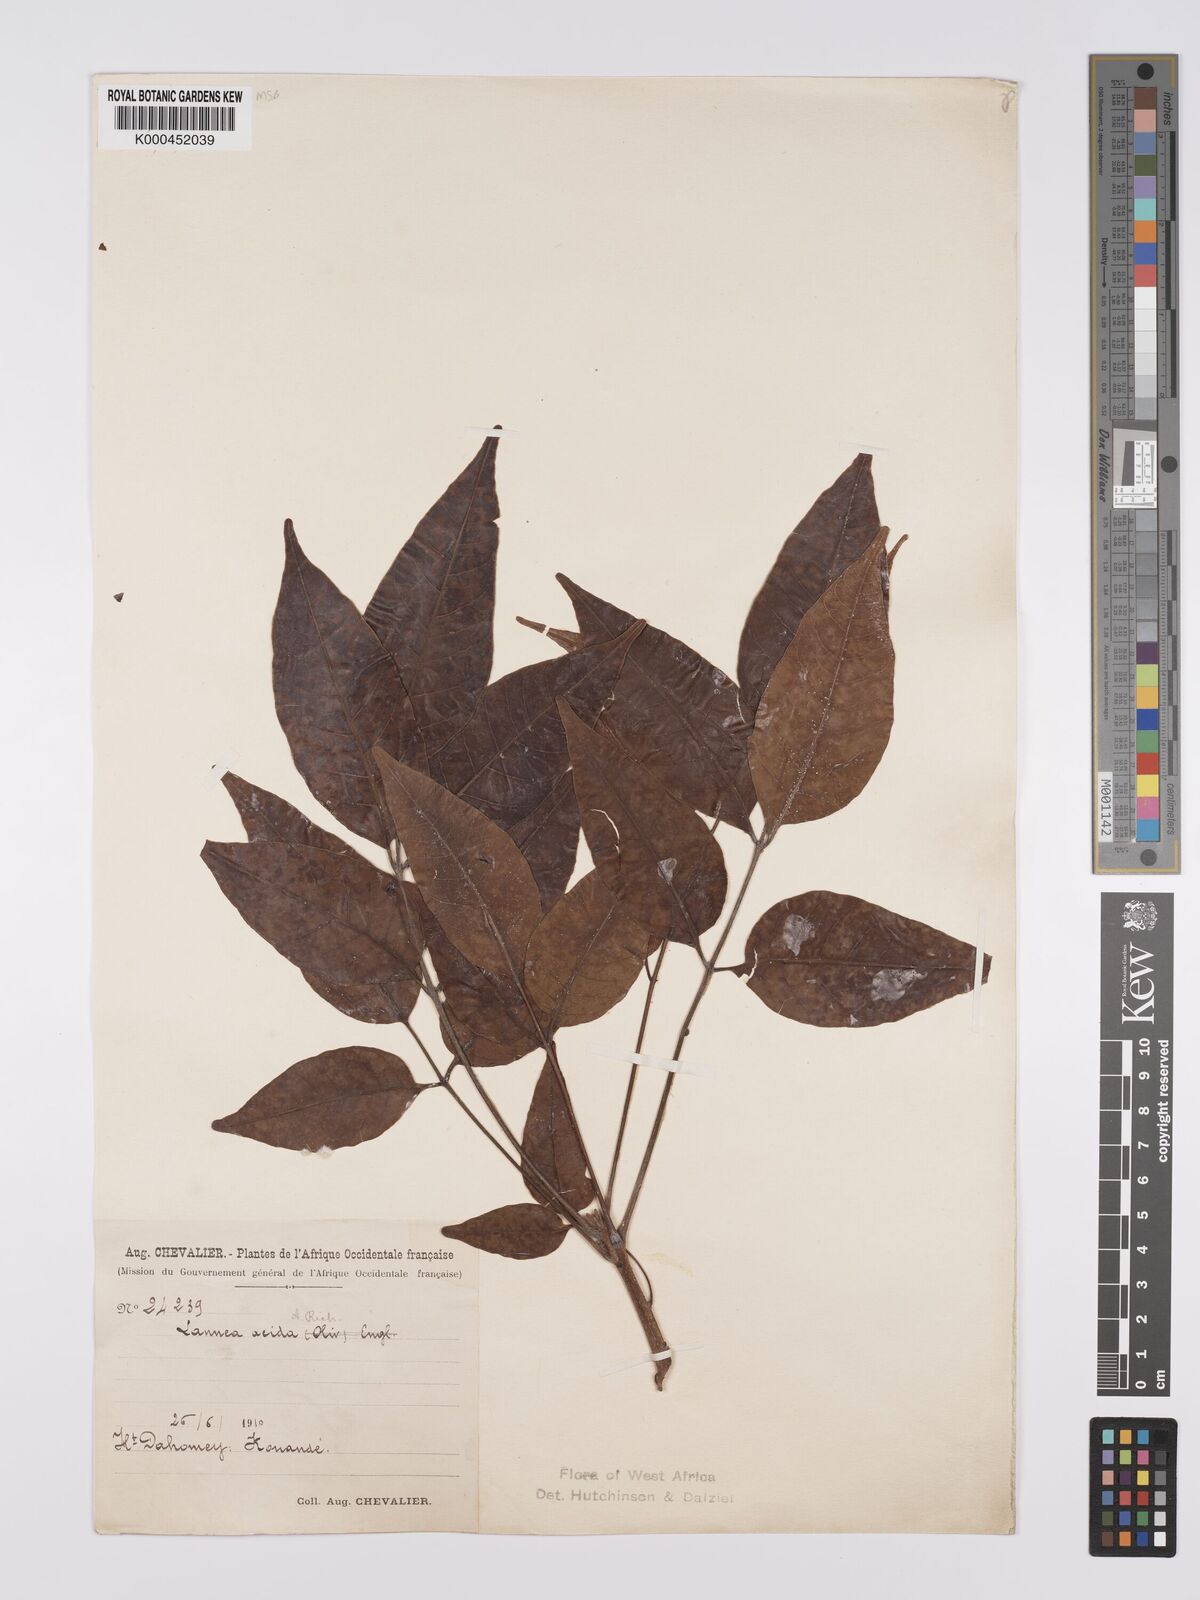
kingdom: Plantae
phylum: Tracheophyta
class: Magnoliopsida
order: Sapindales
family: Anacardiaceae
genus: Lannea
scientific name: Lannea acida
